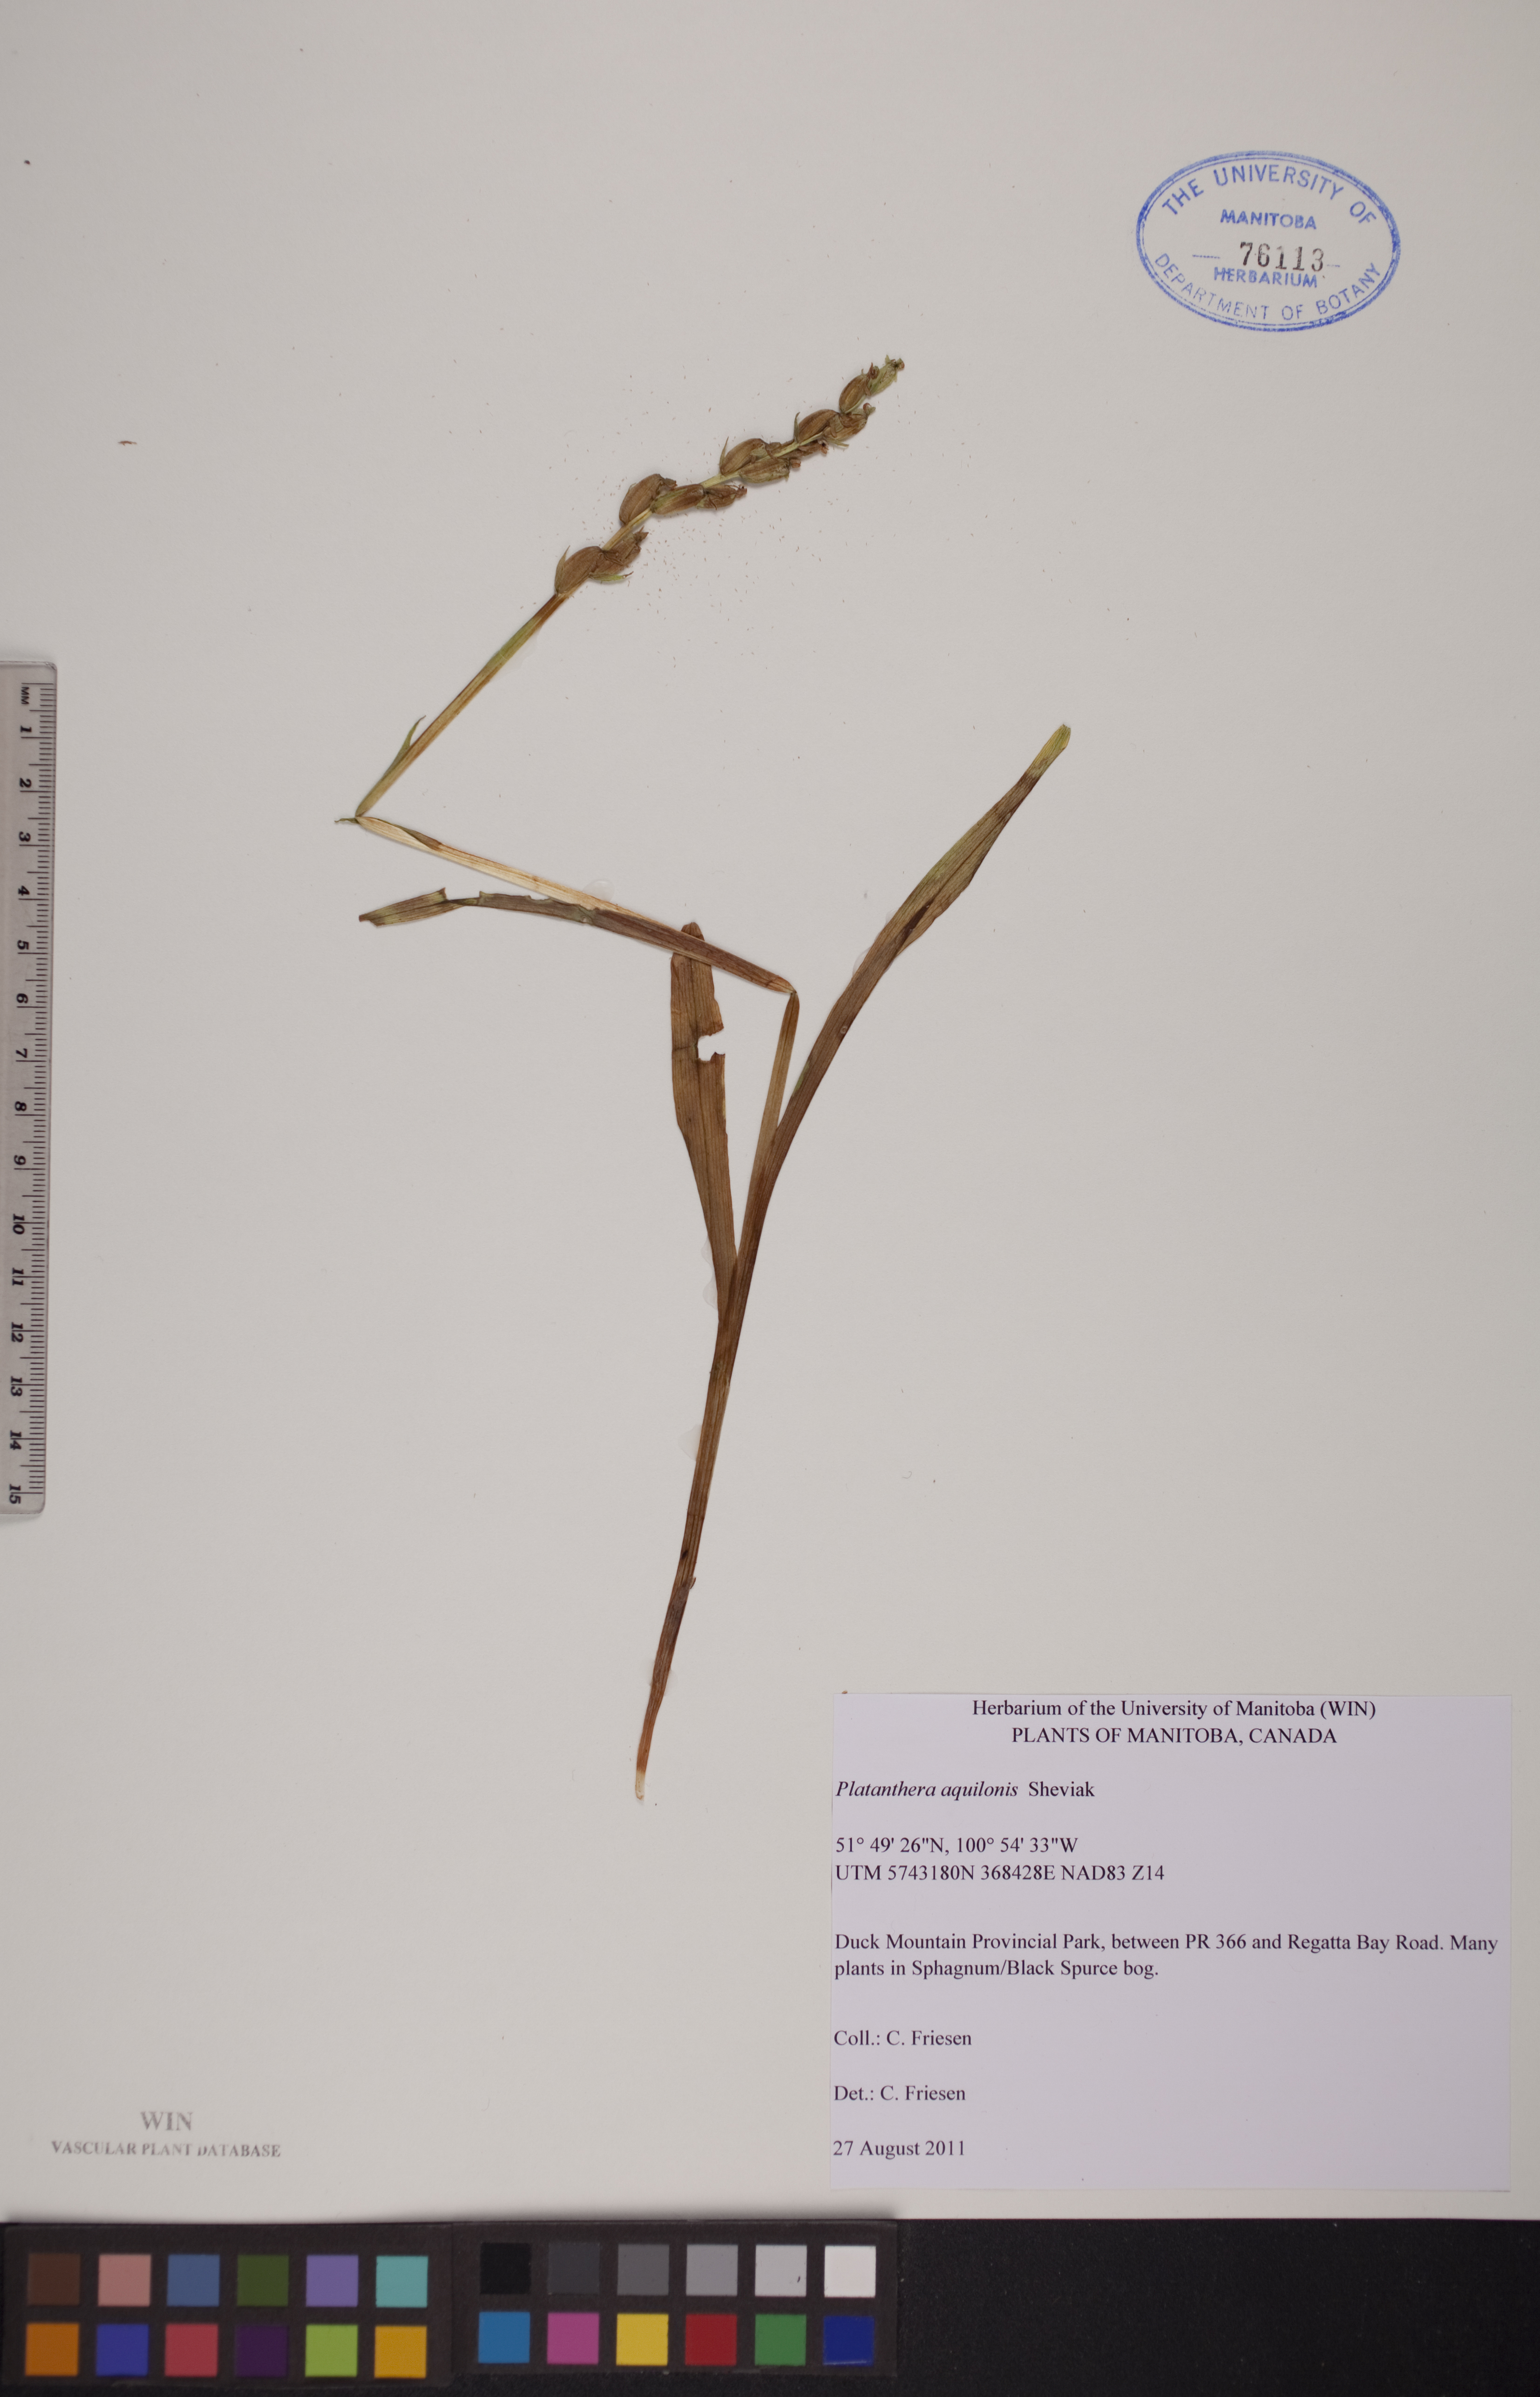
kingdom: Plantae
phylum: Tracheophyta
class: Liliopsida
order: Asparagales
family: Orchidaceae
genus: Platanthera
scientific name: Platanthera aquilonis
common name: Northern green orchid
